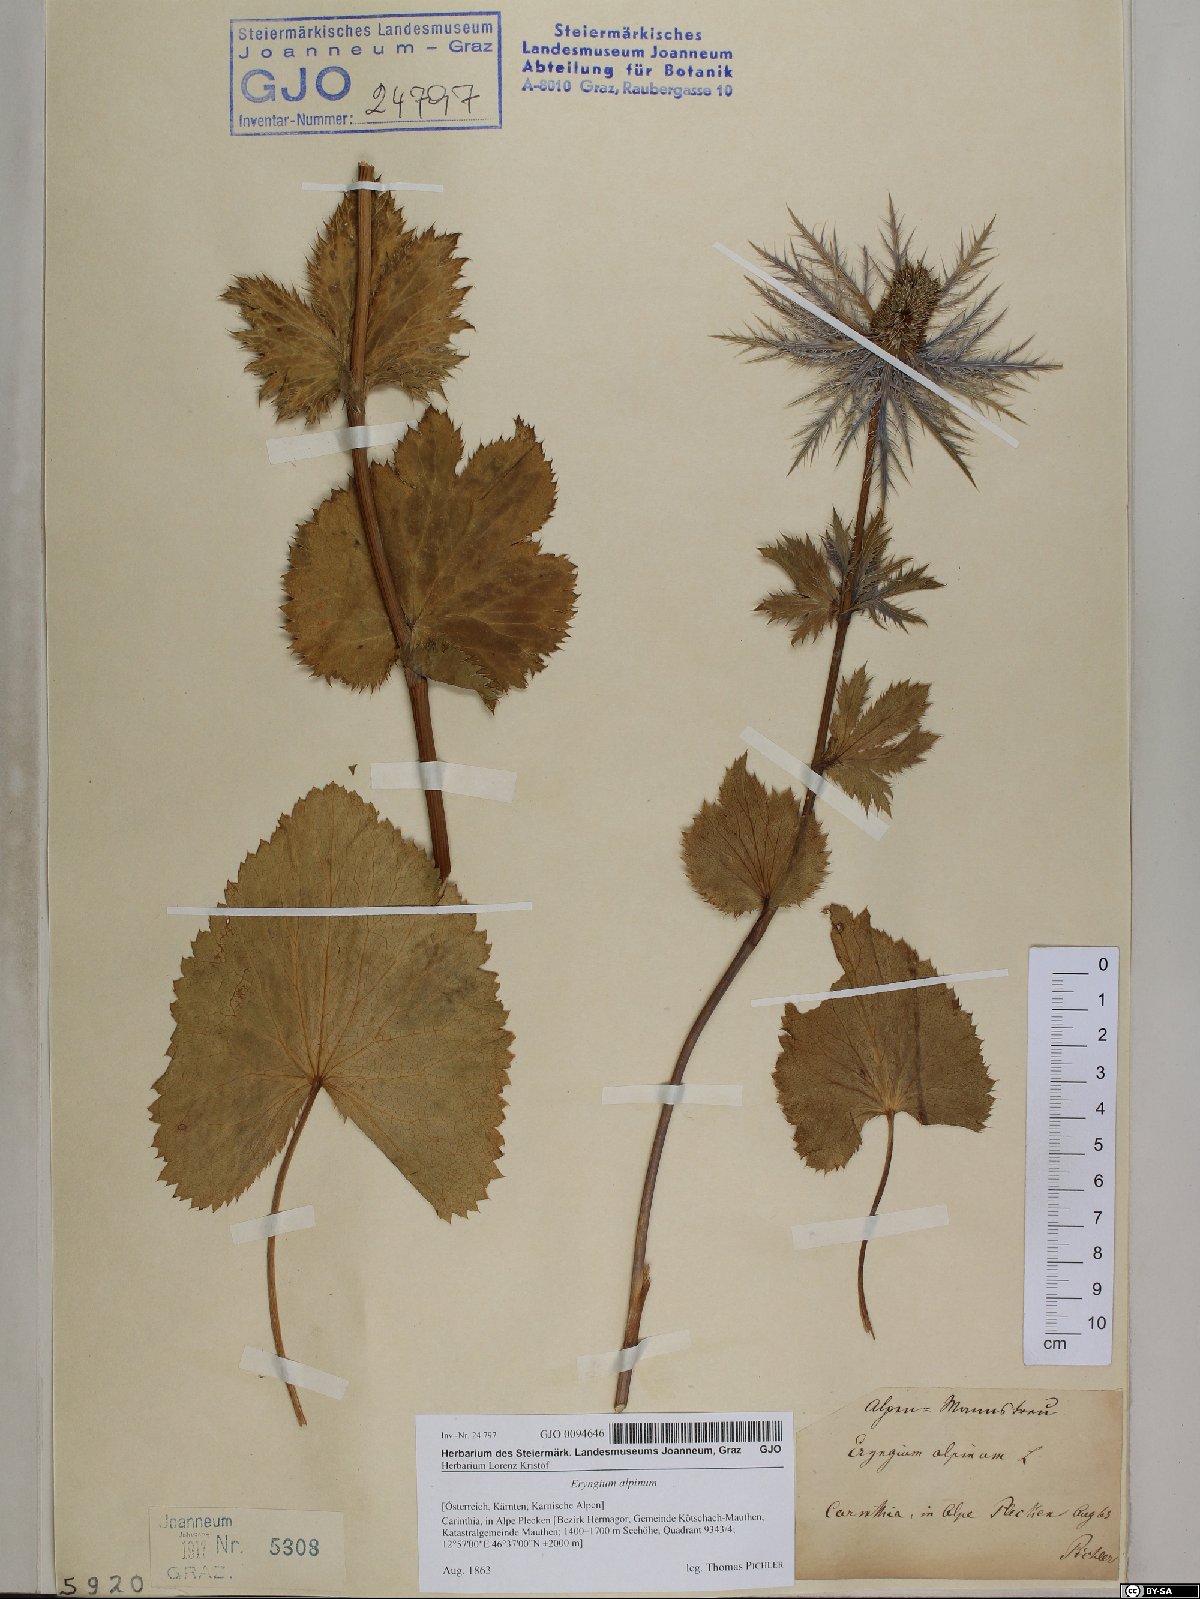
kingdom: Plantae
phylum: Tracheophyta
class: Magnoliopsida
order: Apiales
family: Apiaceae
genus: Eryngium
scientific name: Eryngium alpinum
